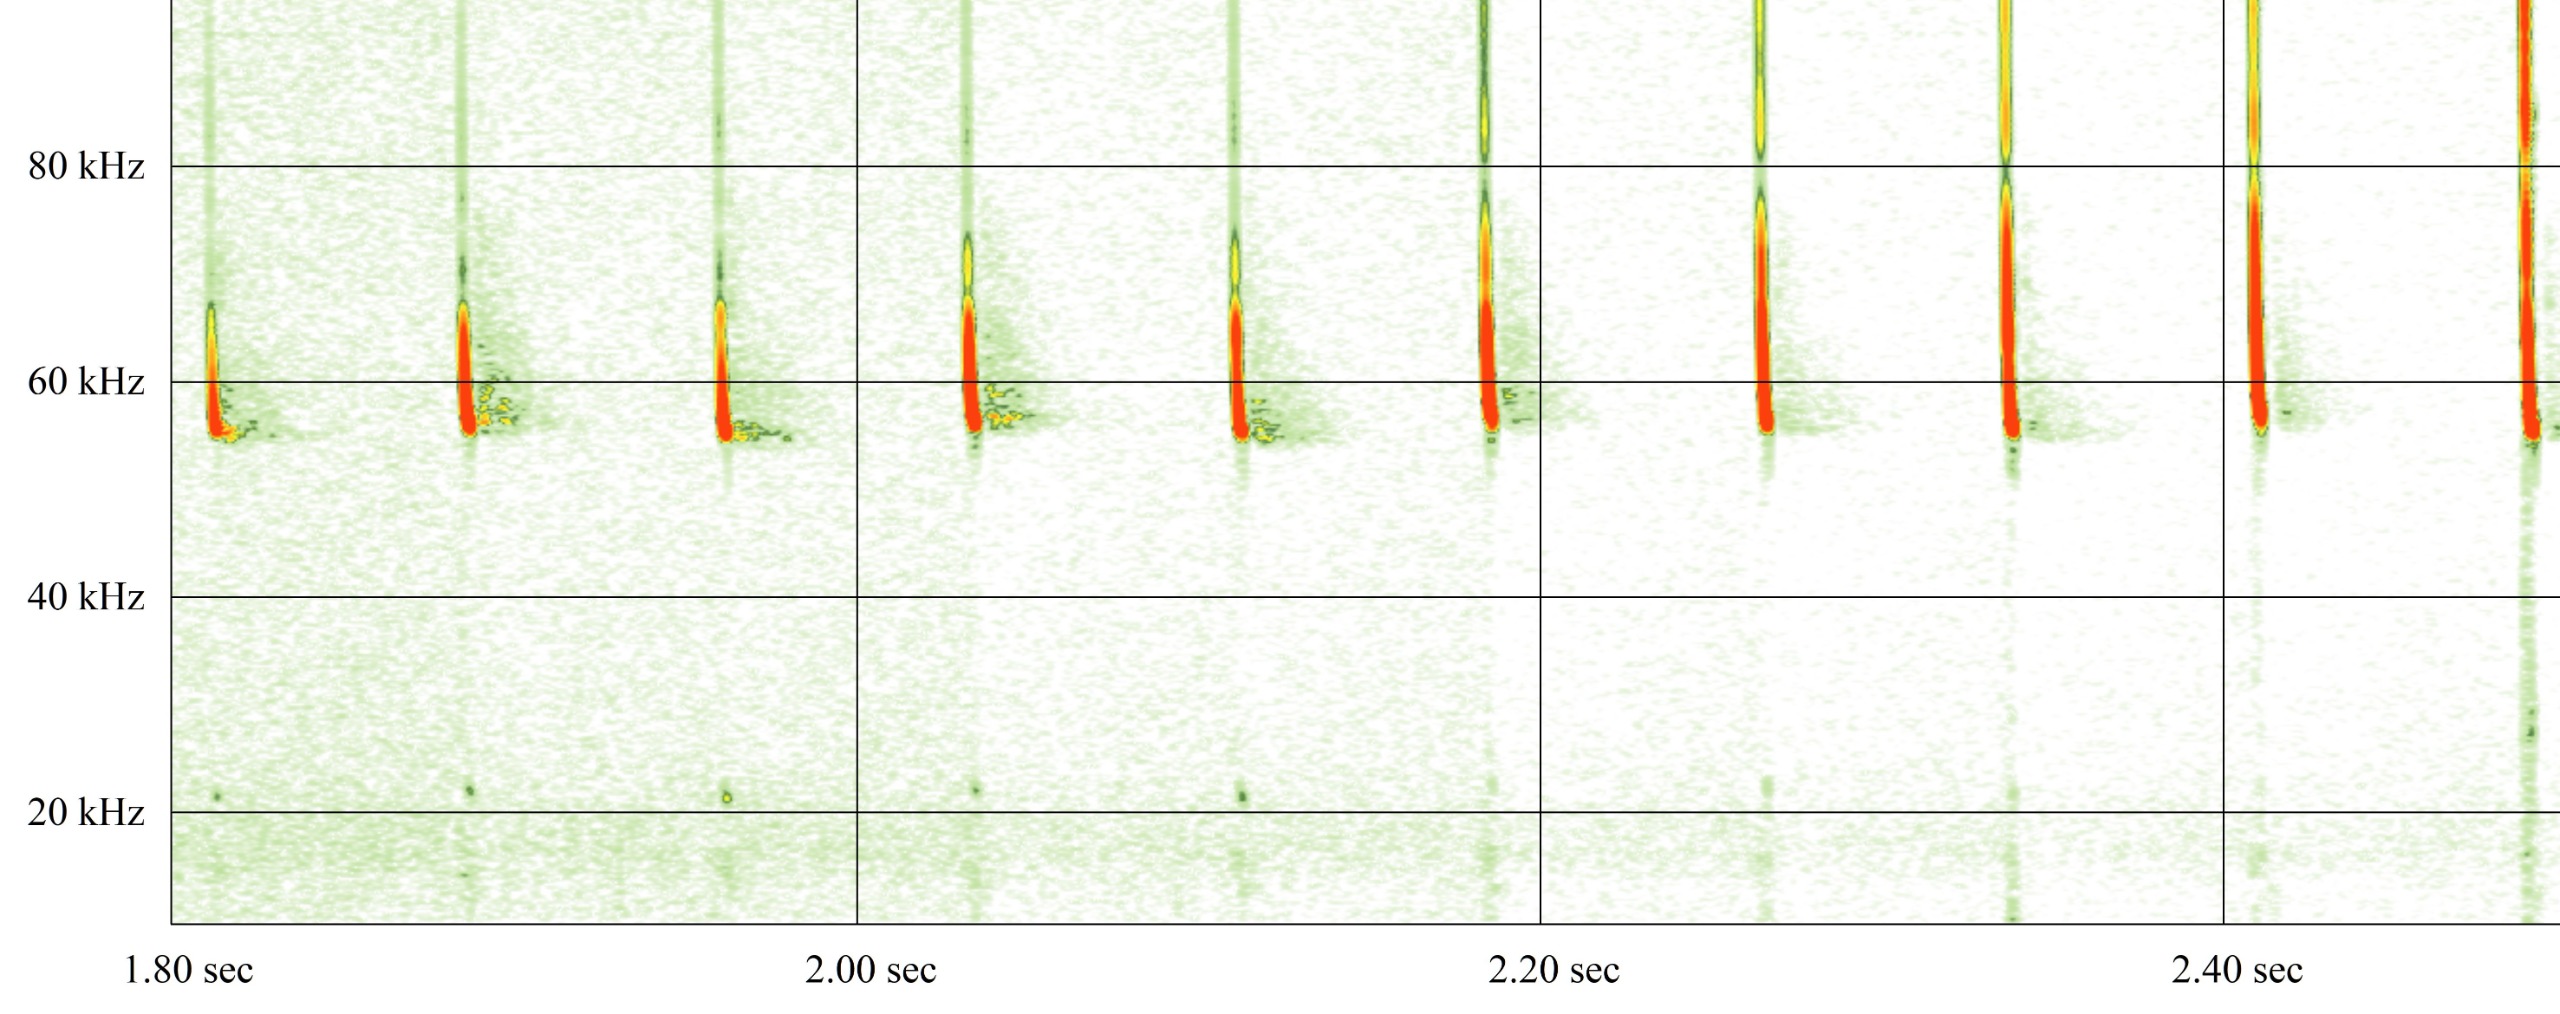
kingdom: Animalia
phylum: Chordata
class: Mammalia
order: Chiroptera
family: Vespertilionidae
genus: Pipistrellus
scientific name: Pipistrellus pygmaeus
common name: Dværgflagermus
